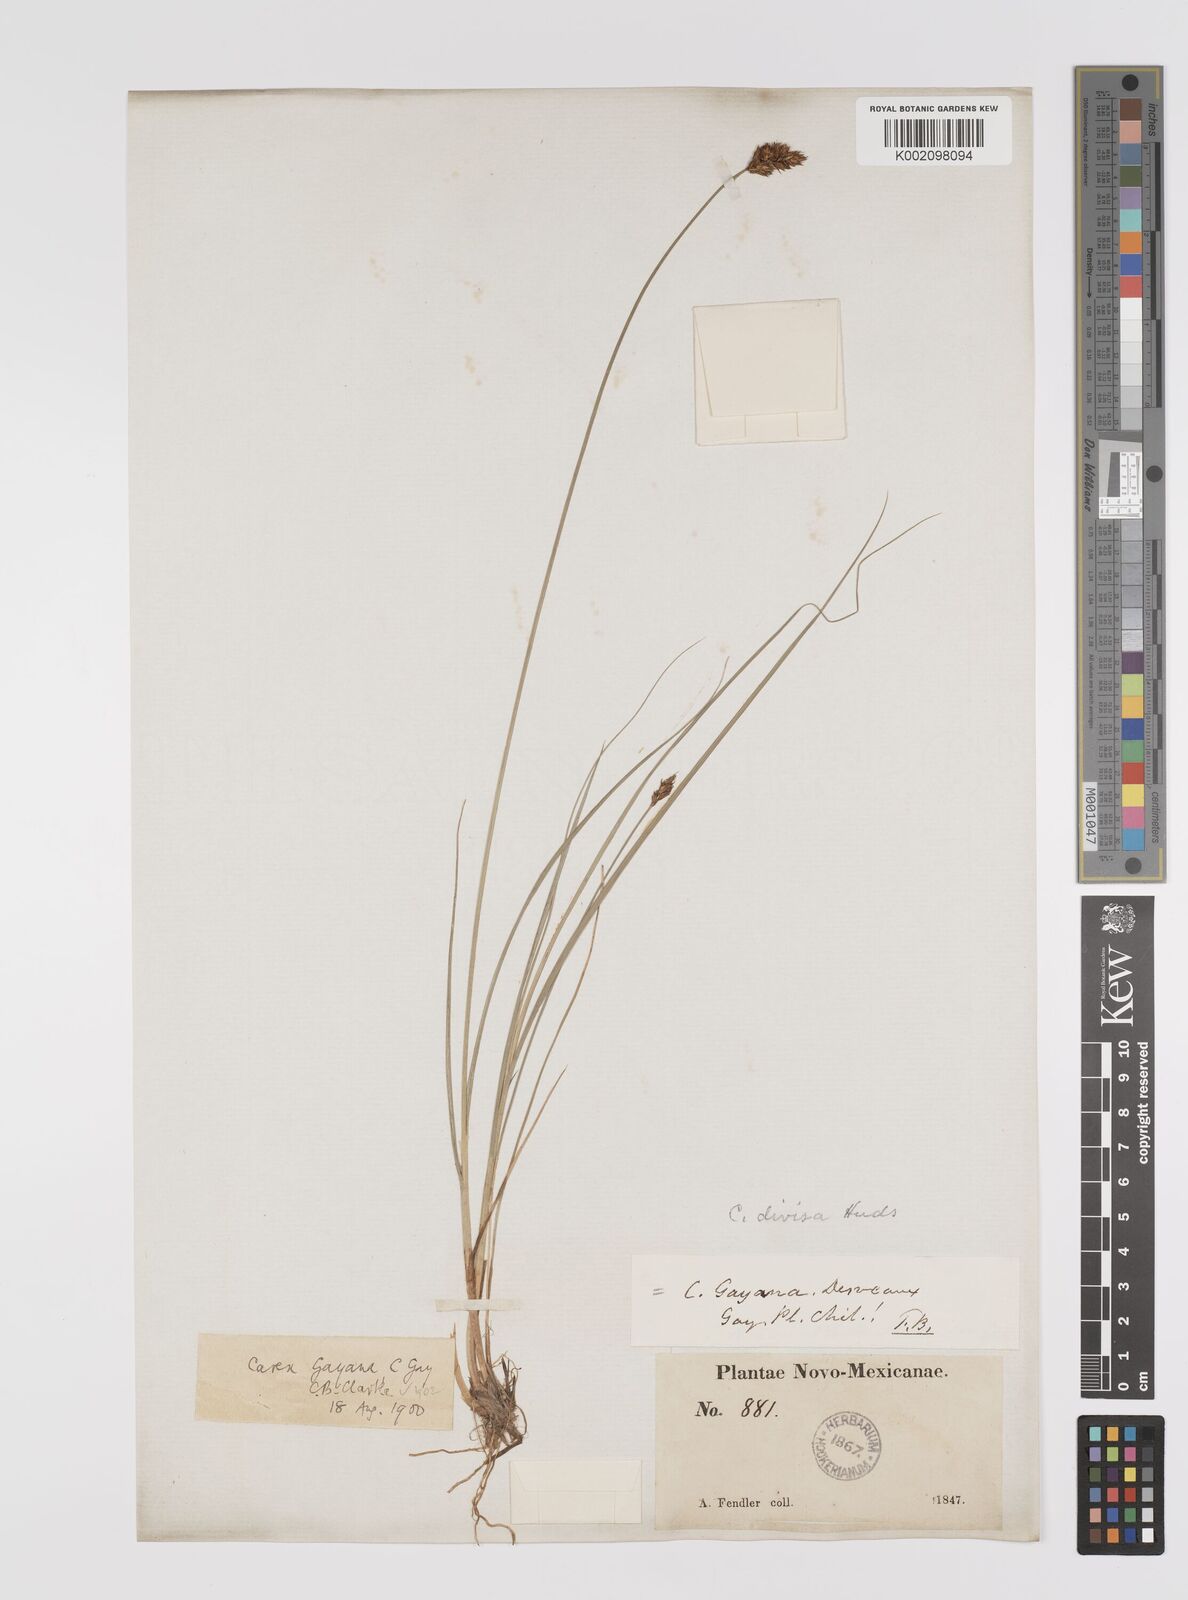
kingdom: Plantae
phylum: Tracheophyta
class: Liliopsida
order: Poales
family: Cyperaceae
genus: Carex
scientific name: Carex praegracilis
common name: Black creeper sedge
